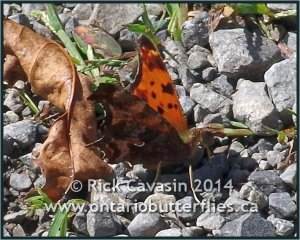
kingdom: Animalia
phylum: Arthropoda
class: Insecta
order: Lepidoptera
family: Nymphalidae
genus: Polygonia
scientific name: Polygonia comma
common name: Eastern Comma
